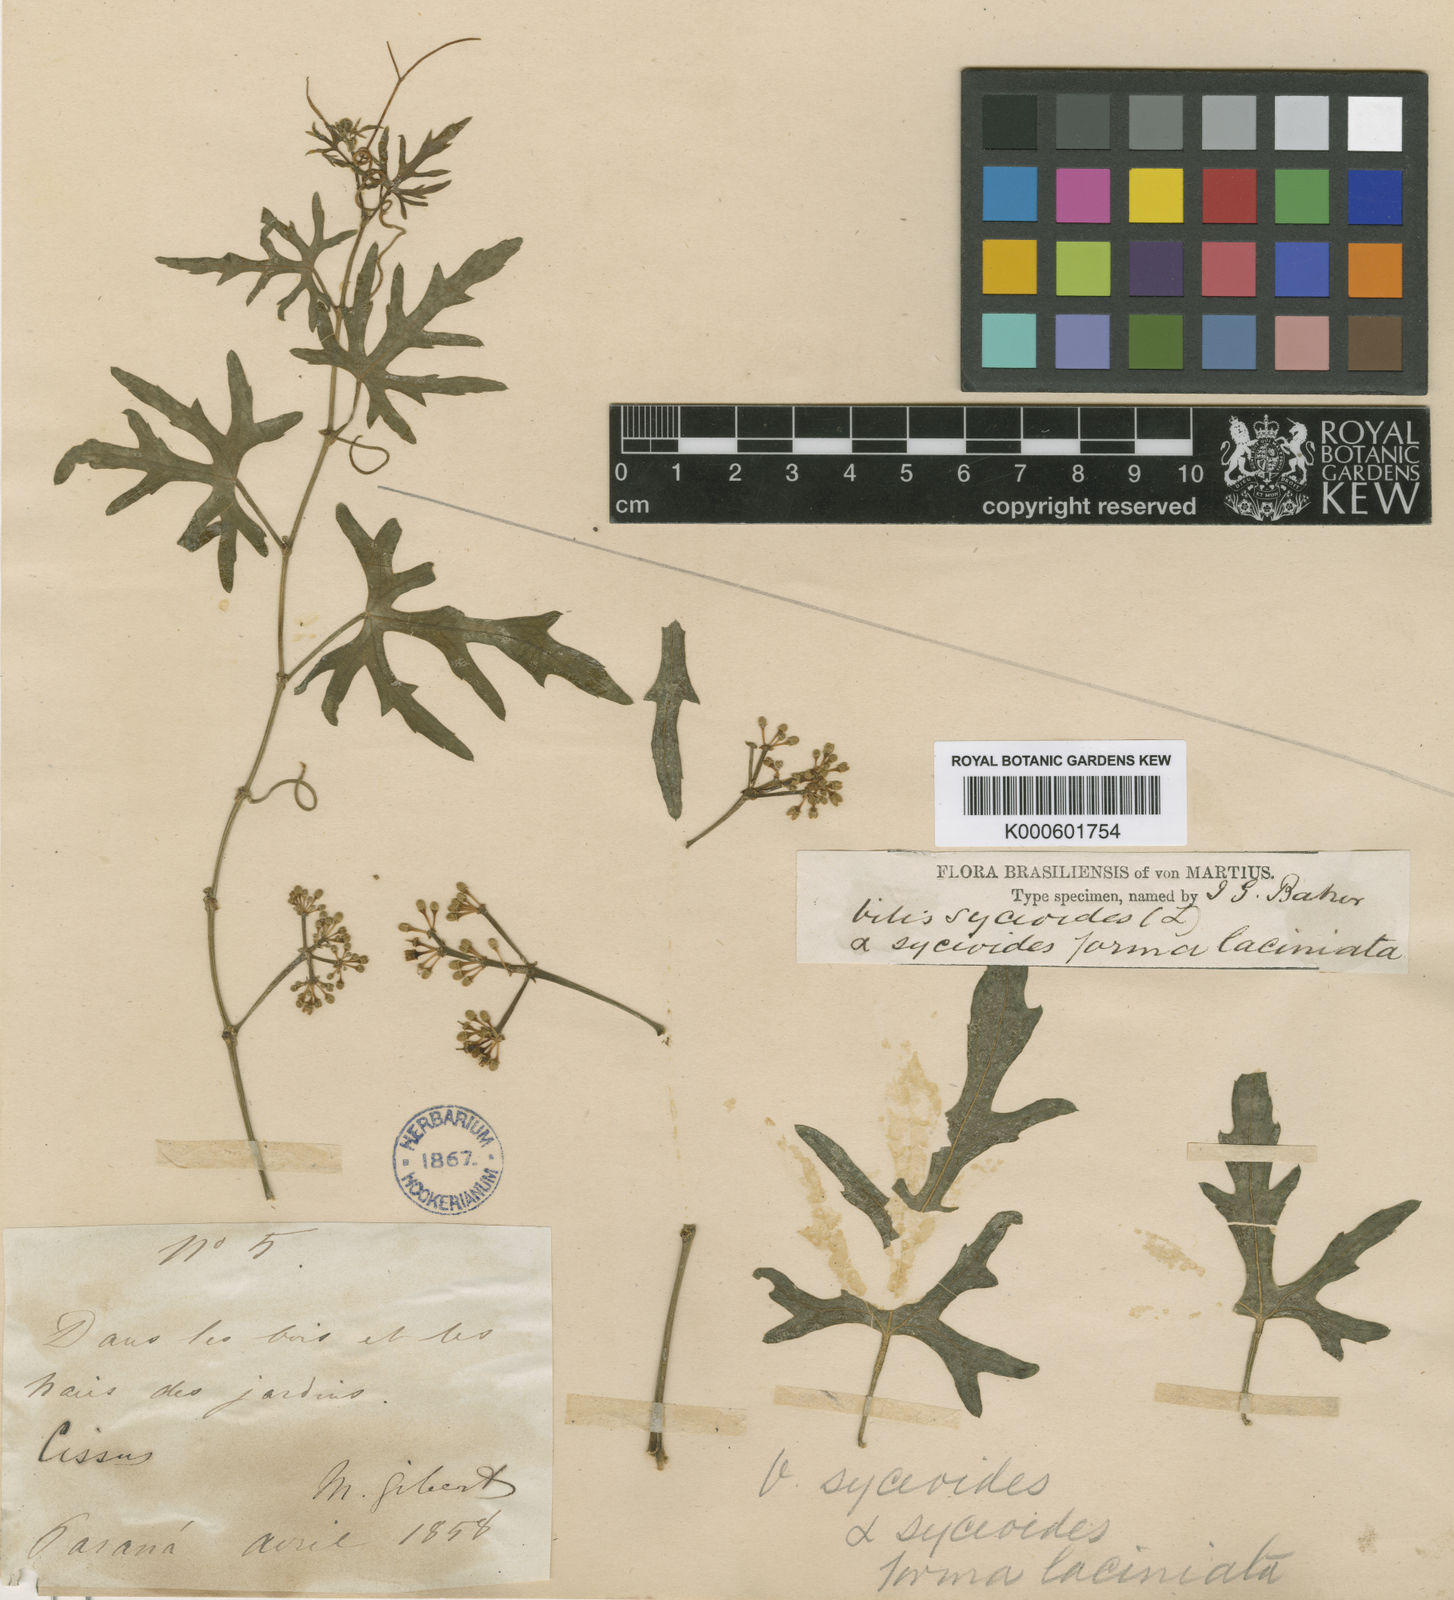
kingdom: Plantae
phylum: Tracheophyta
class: Magnoliopsida
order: Vitales
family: Vitaceae
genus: Cissus
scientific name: Cissus verticillata
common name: Princess vine
